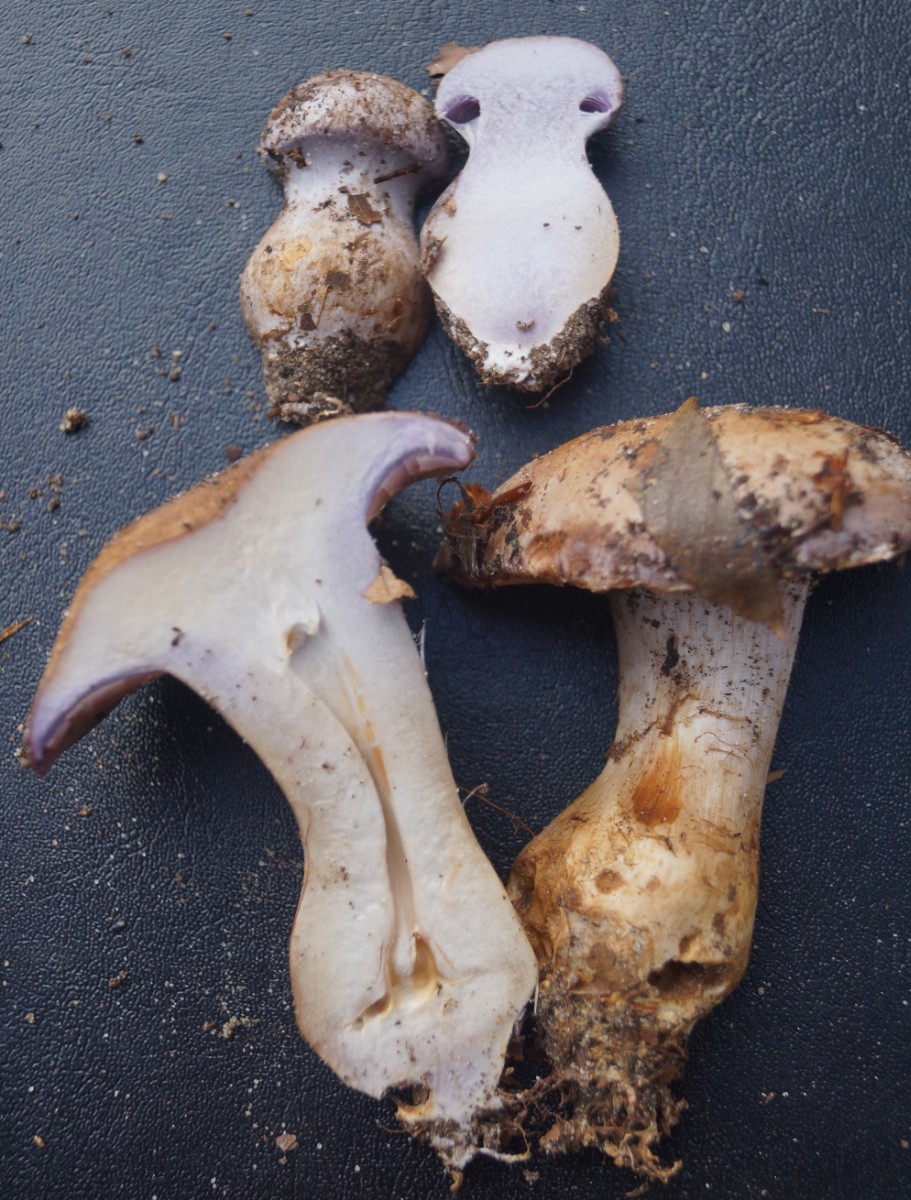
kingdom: Fungi
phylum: Basidiomycota
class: Agaricomycetes
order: Agaricales
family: Cortinariaceae
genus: Cortinarius
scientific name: Cortinarius
